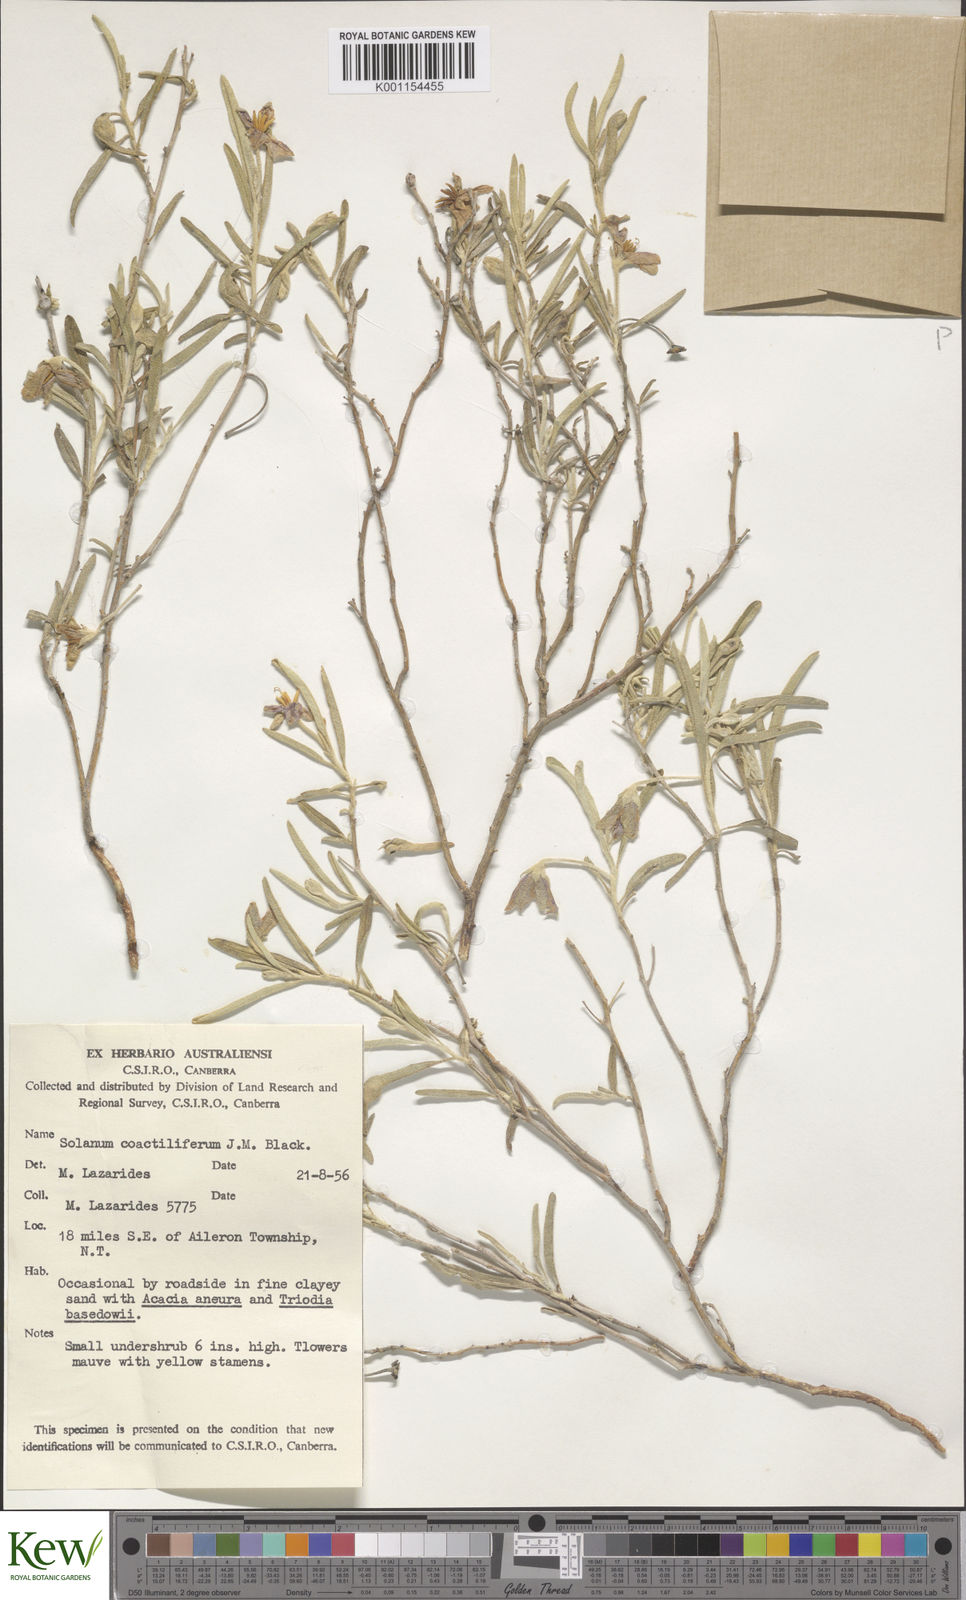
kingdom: Plantae
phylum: Tracheophyta
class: Magnoliopsida
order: Solanales
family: Solanaceae
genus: Solanum
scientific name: Solanum coactiliferum
